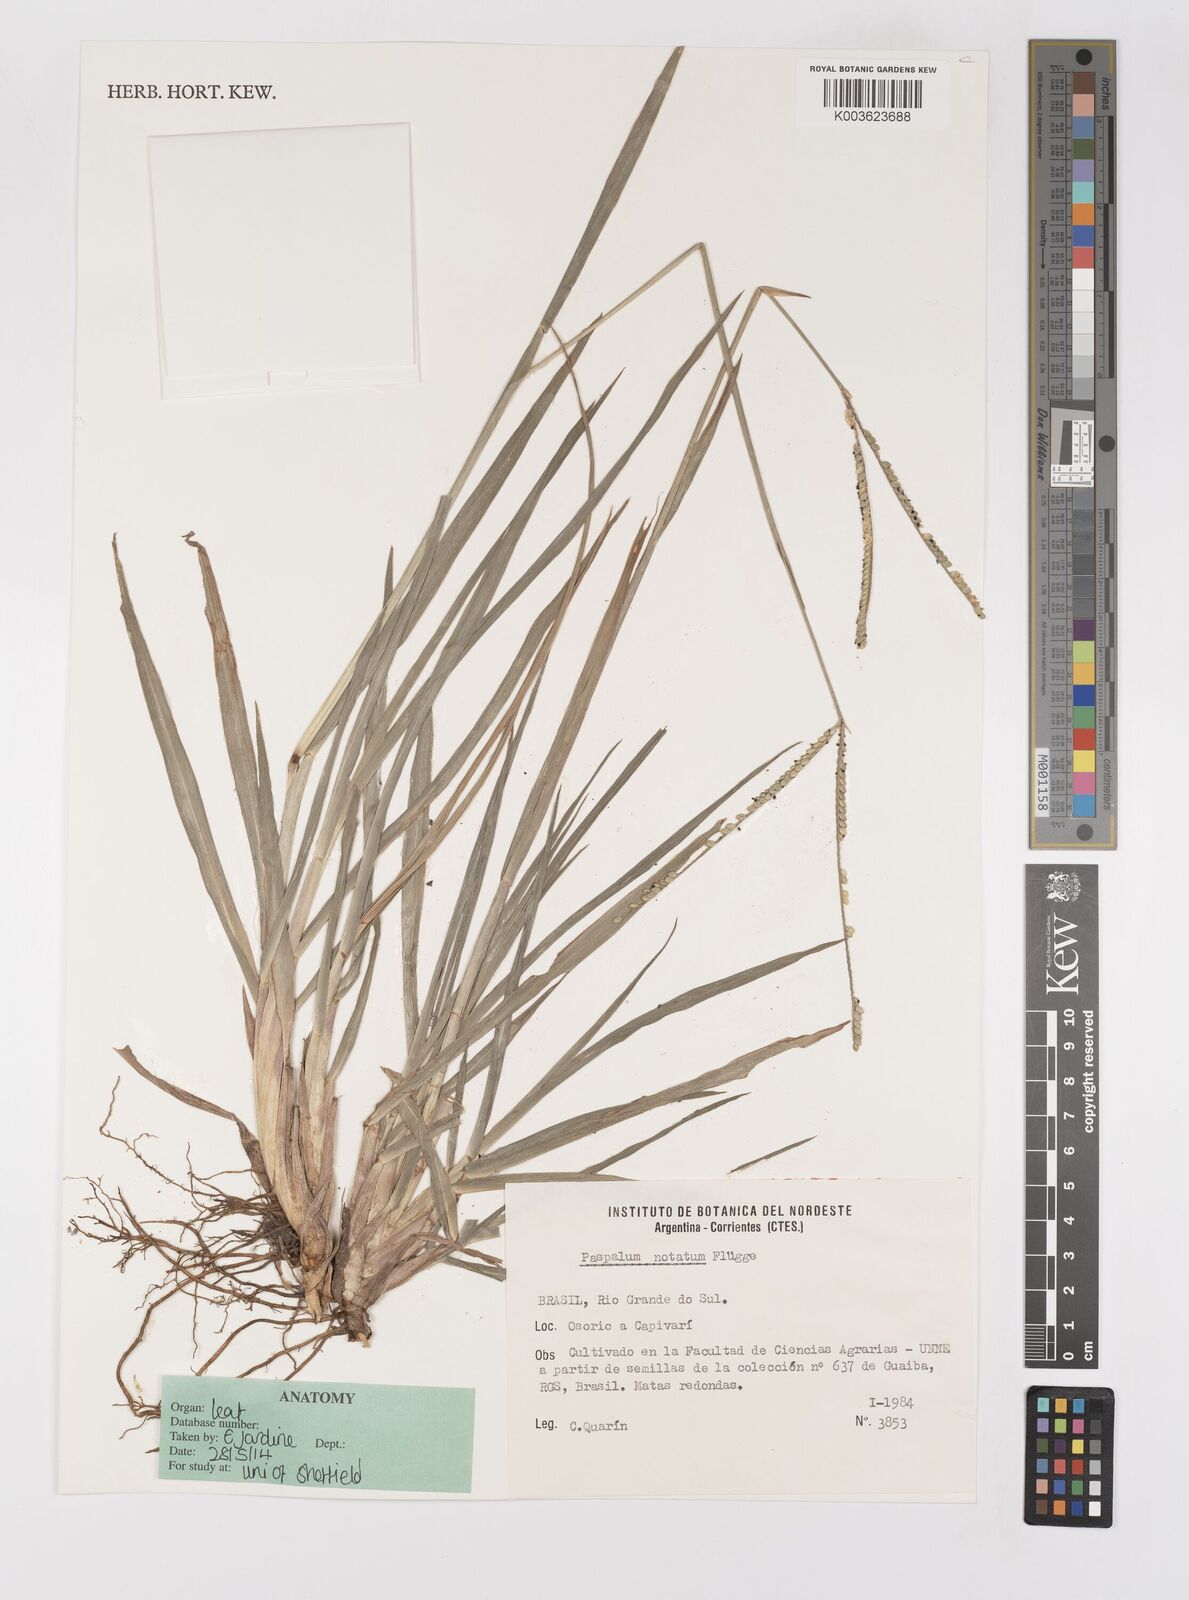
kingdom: Plantae
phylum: Tracheophyta
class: Liliopsida
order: Poales
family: Poaceae
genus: Paspalum
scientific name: Paspalum notatum
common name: Bahiagrass
